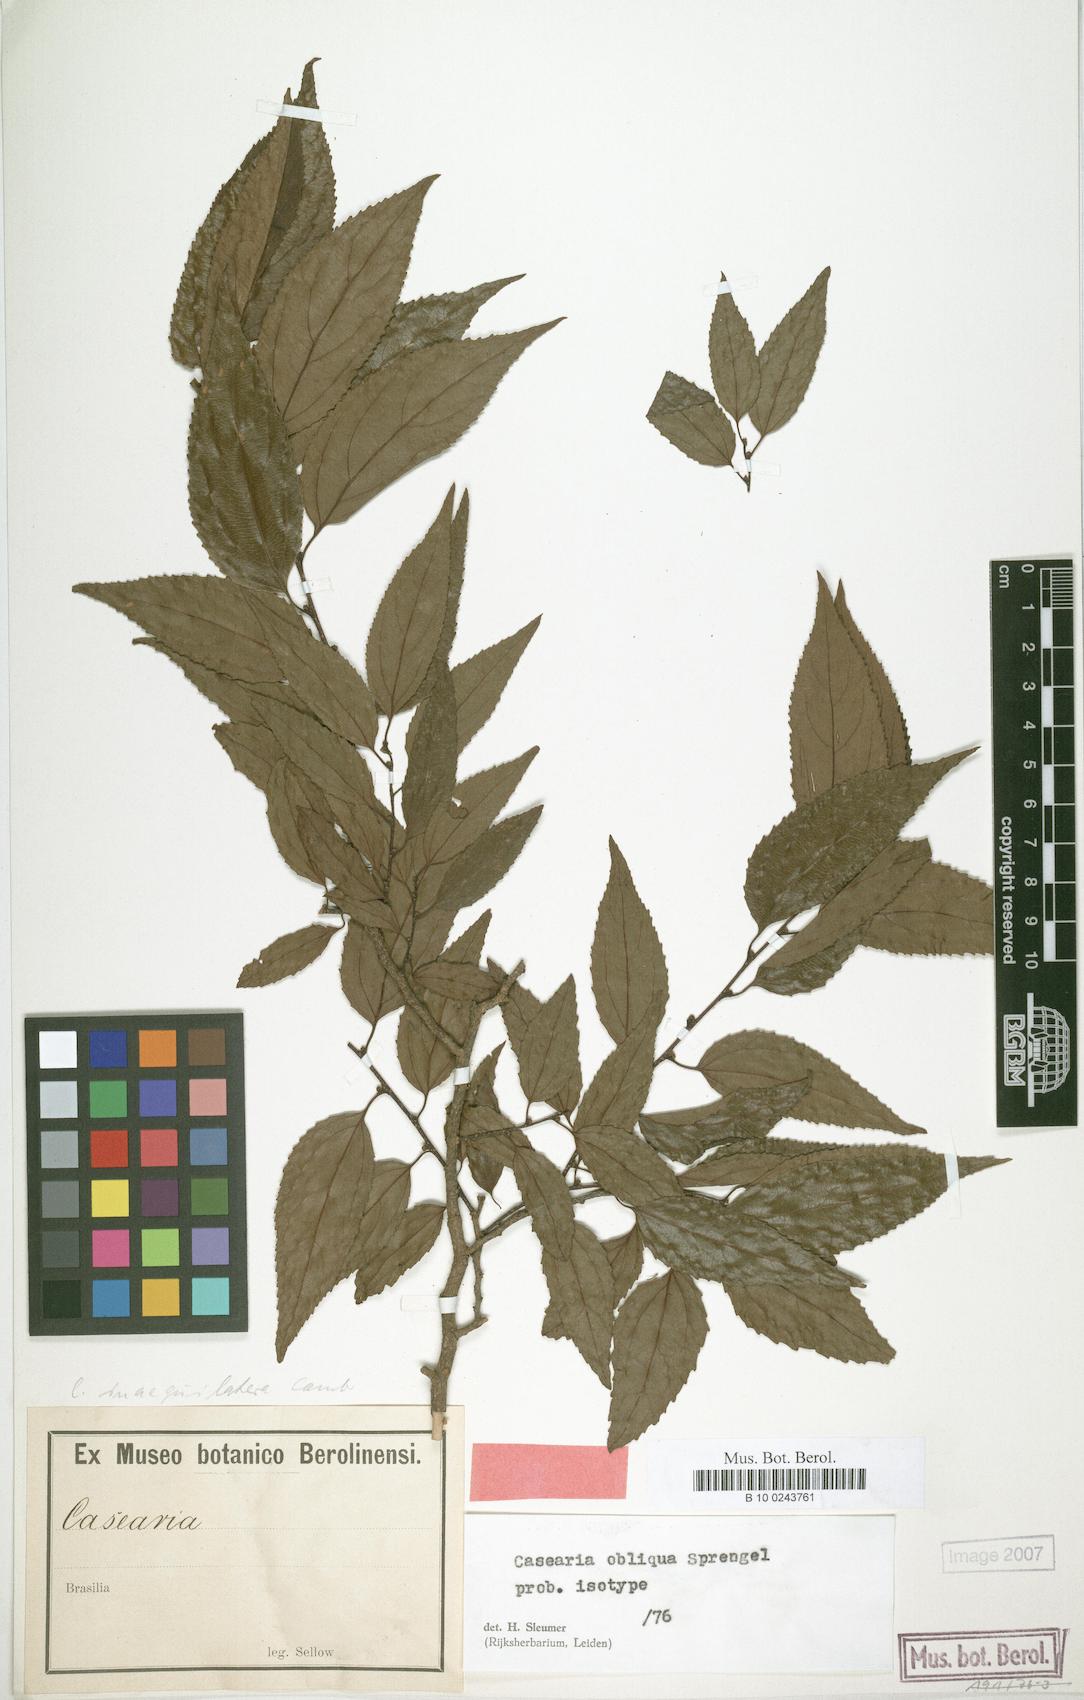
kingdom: Plantae
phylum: Tracheophyta
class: Magnoliopsida
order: Malpighiales
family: Salicaceae
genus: Casearia
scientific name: Casearia obliqua
